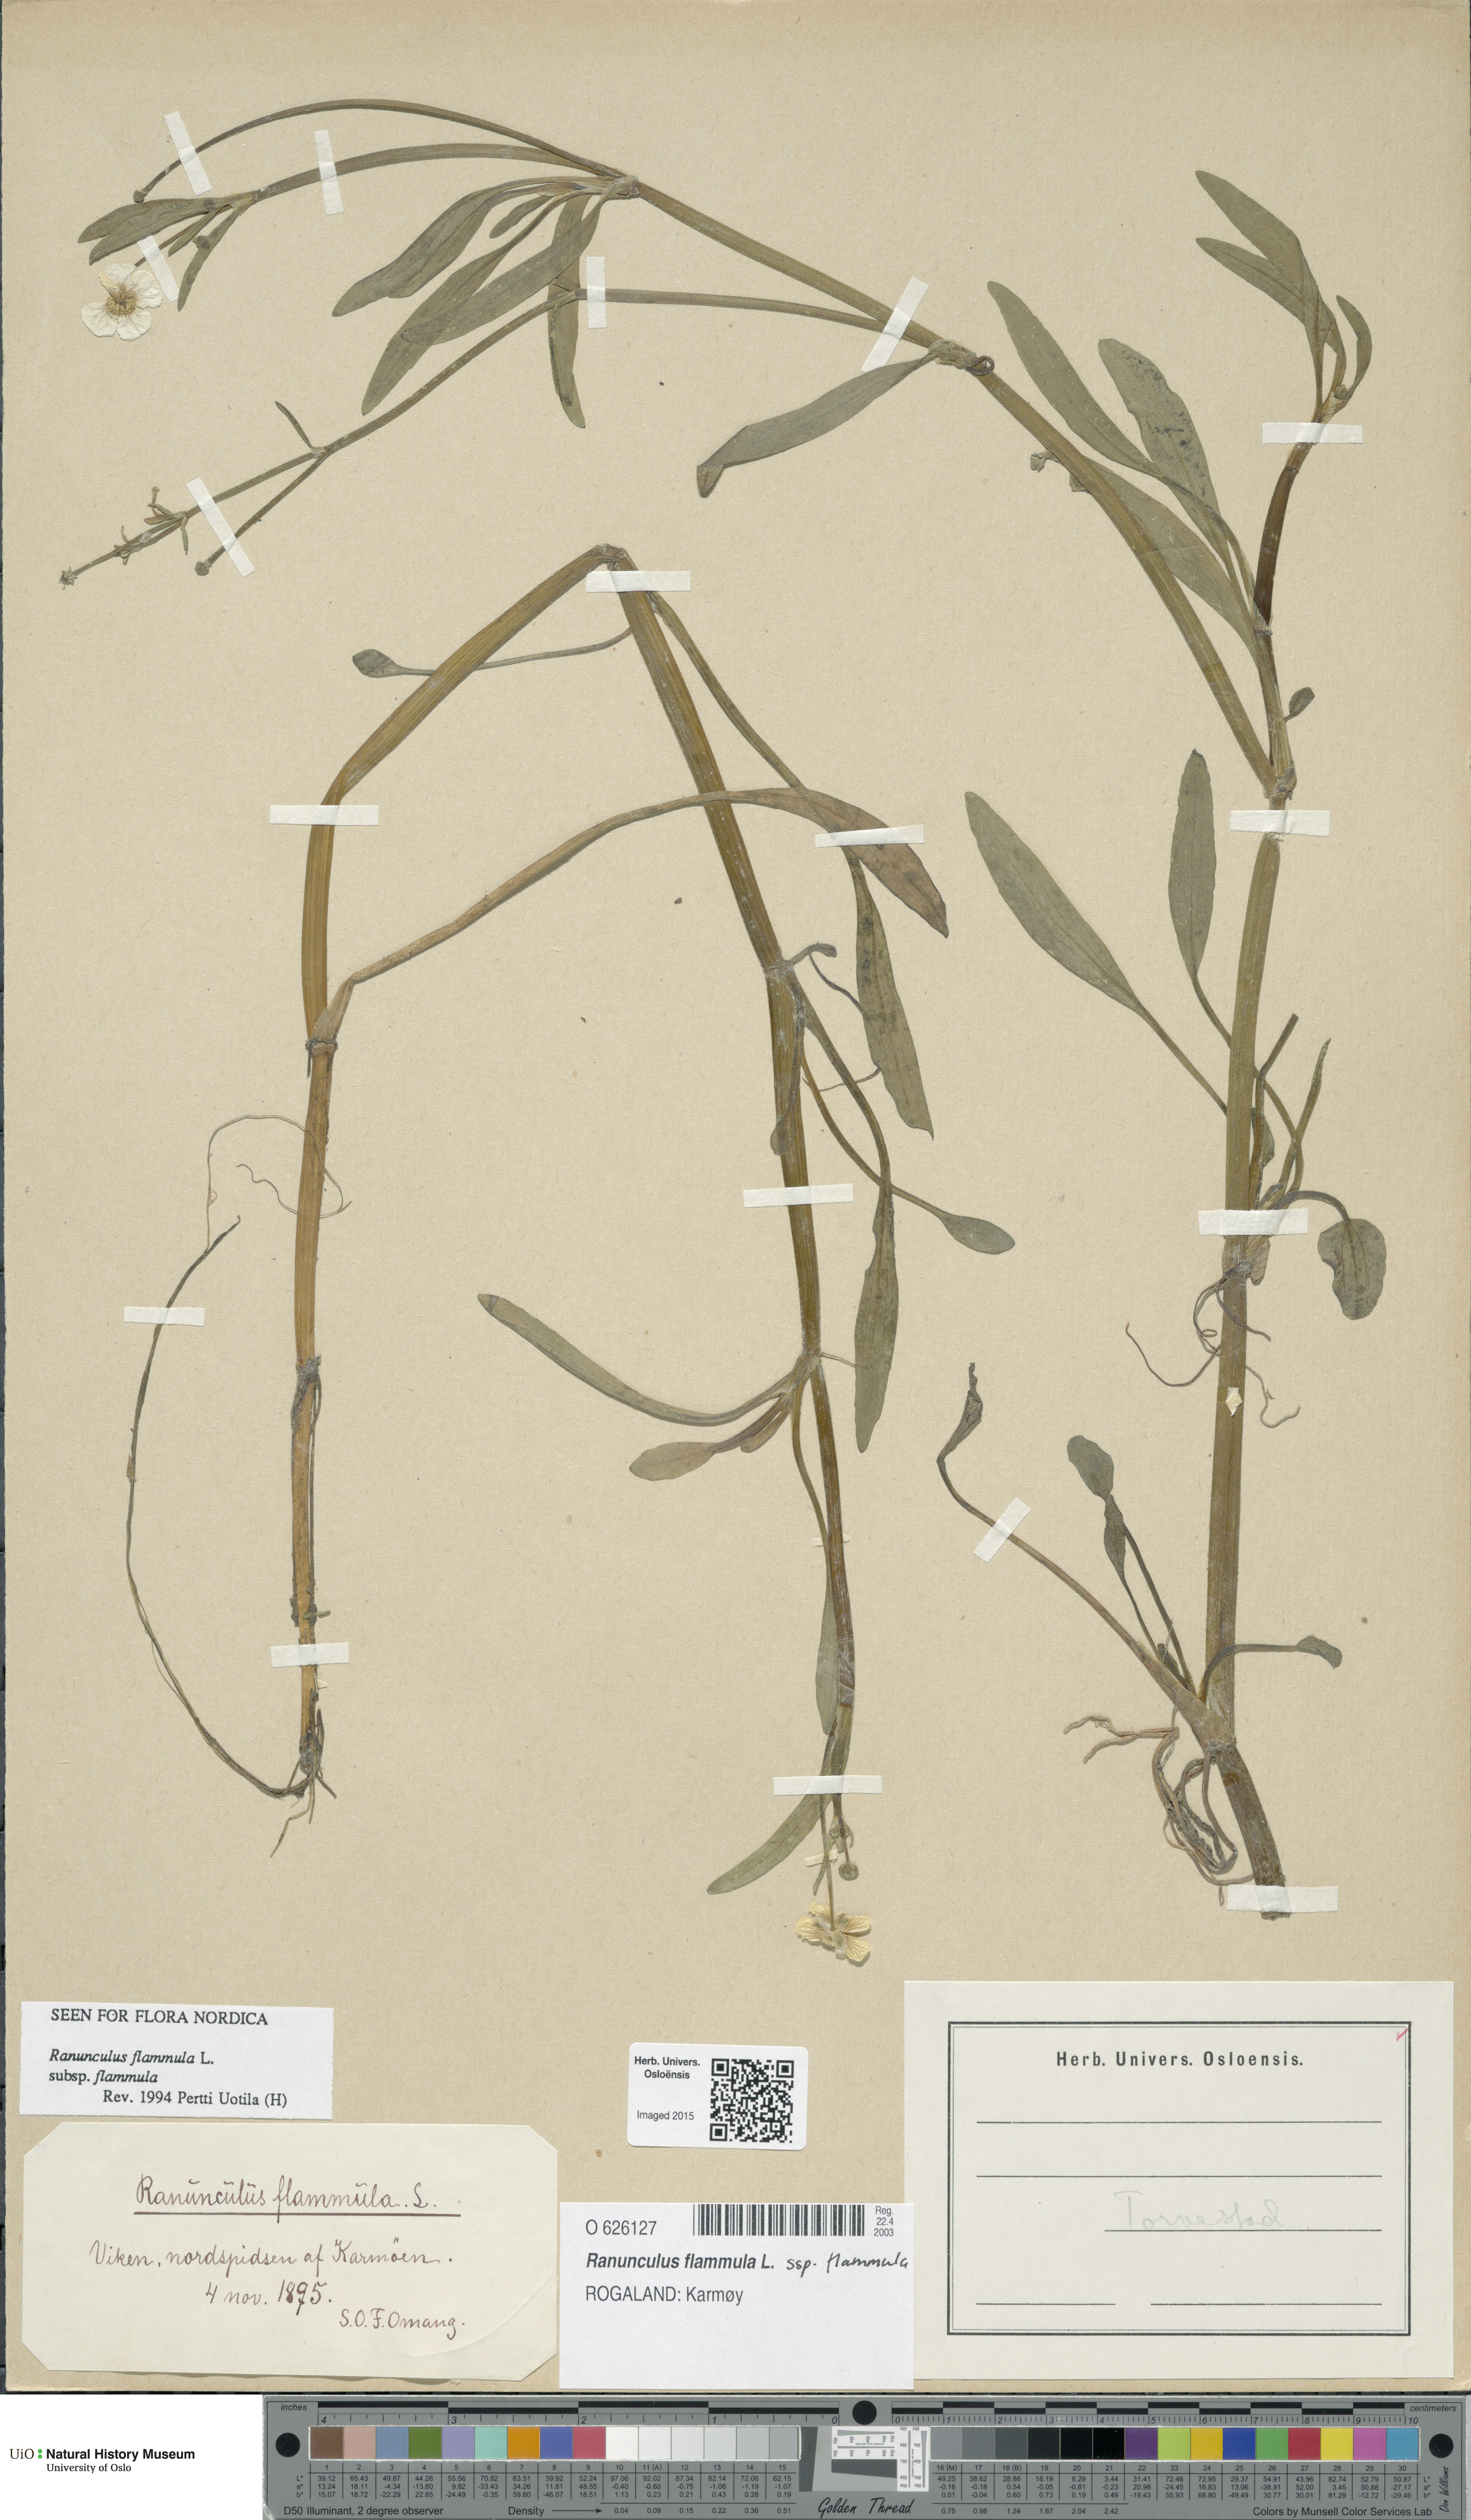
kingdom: Plantae
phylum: Tracheophyta
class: Magnoliopsida
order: Ranunculales
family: Ranunculaceae
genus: Ranunculus
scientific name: Ranunculus flammula
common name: Lesser spearwort
